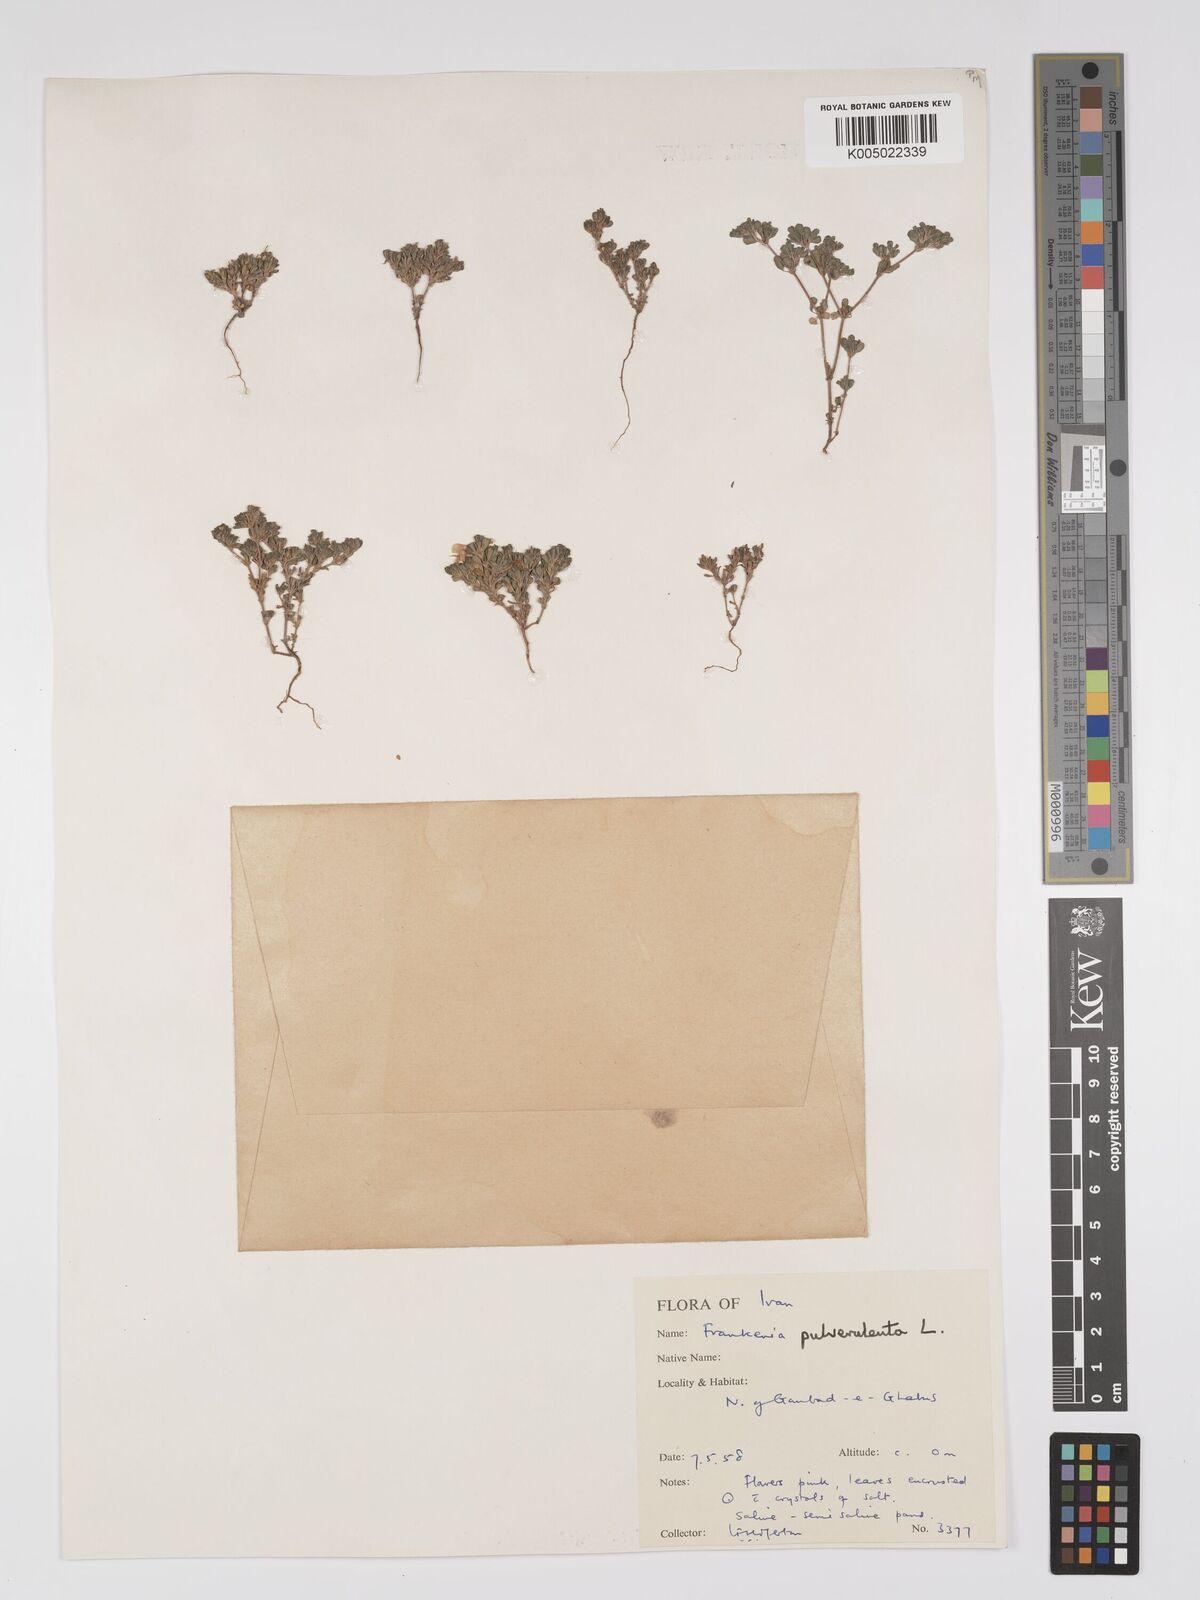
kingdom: Plantae
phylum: Tracheophyta
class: Magnoliopsida
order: Caryophyllales
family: Frankeniaceae
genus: Frankenia
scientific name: Frankenia pulverulenta
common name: European seaheath
